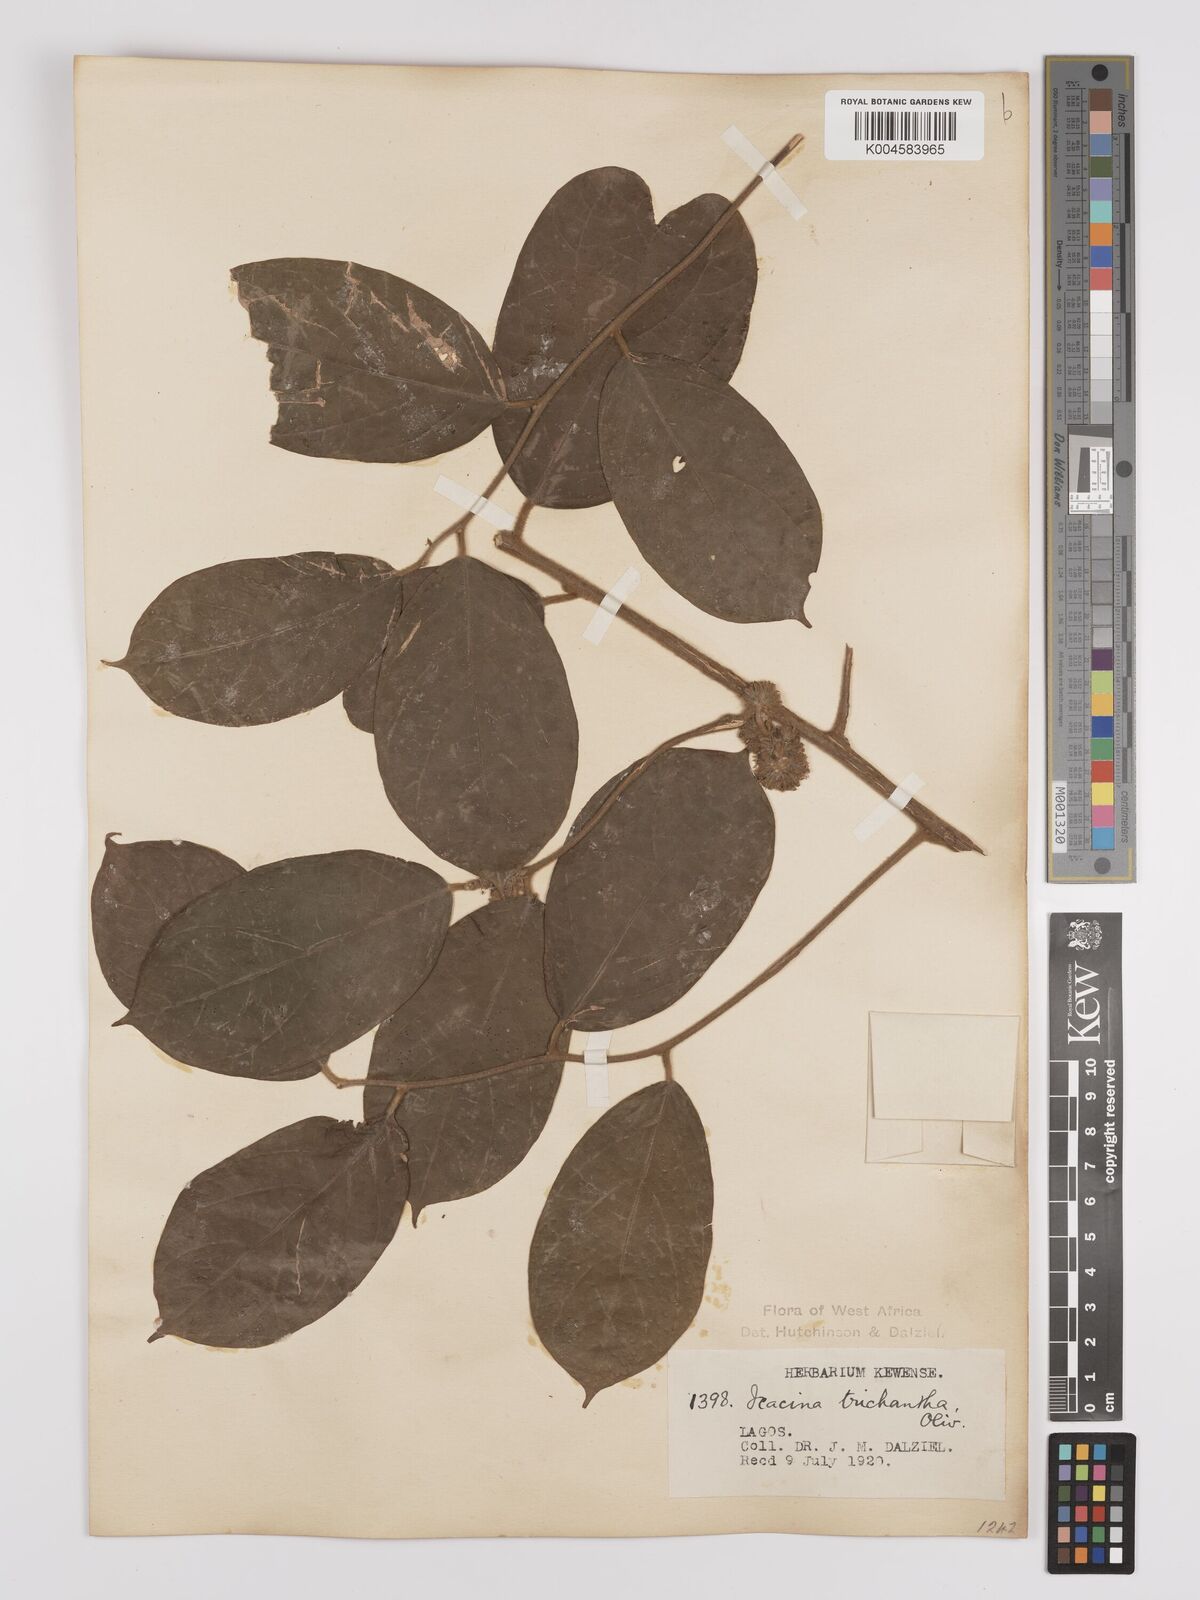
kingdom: Plantae
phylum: Tracheophyta
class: Magnoliopsida
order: Icacinales
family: Icacinaceae
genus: Icacina
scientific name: Icacina trichantha
